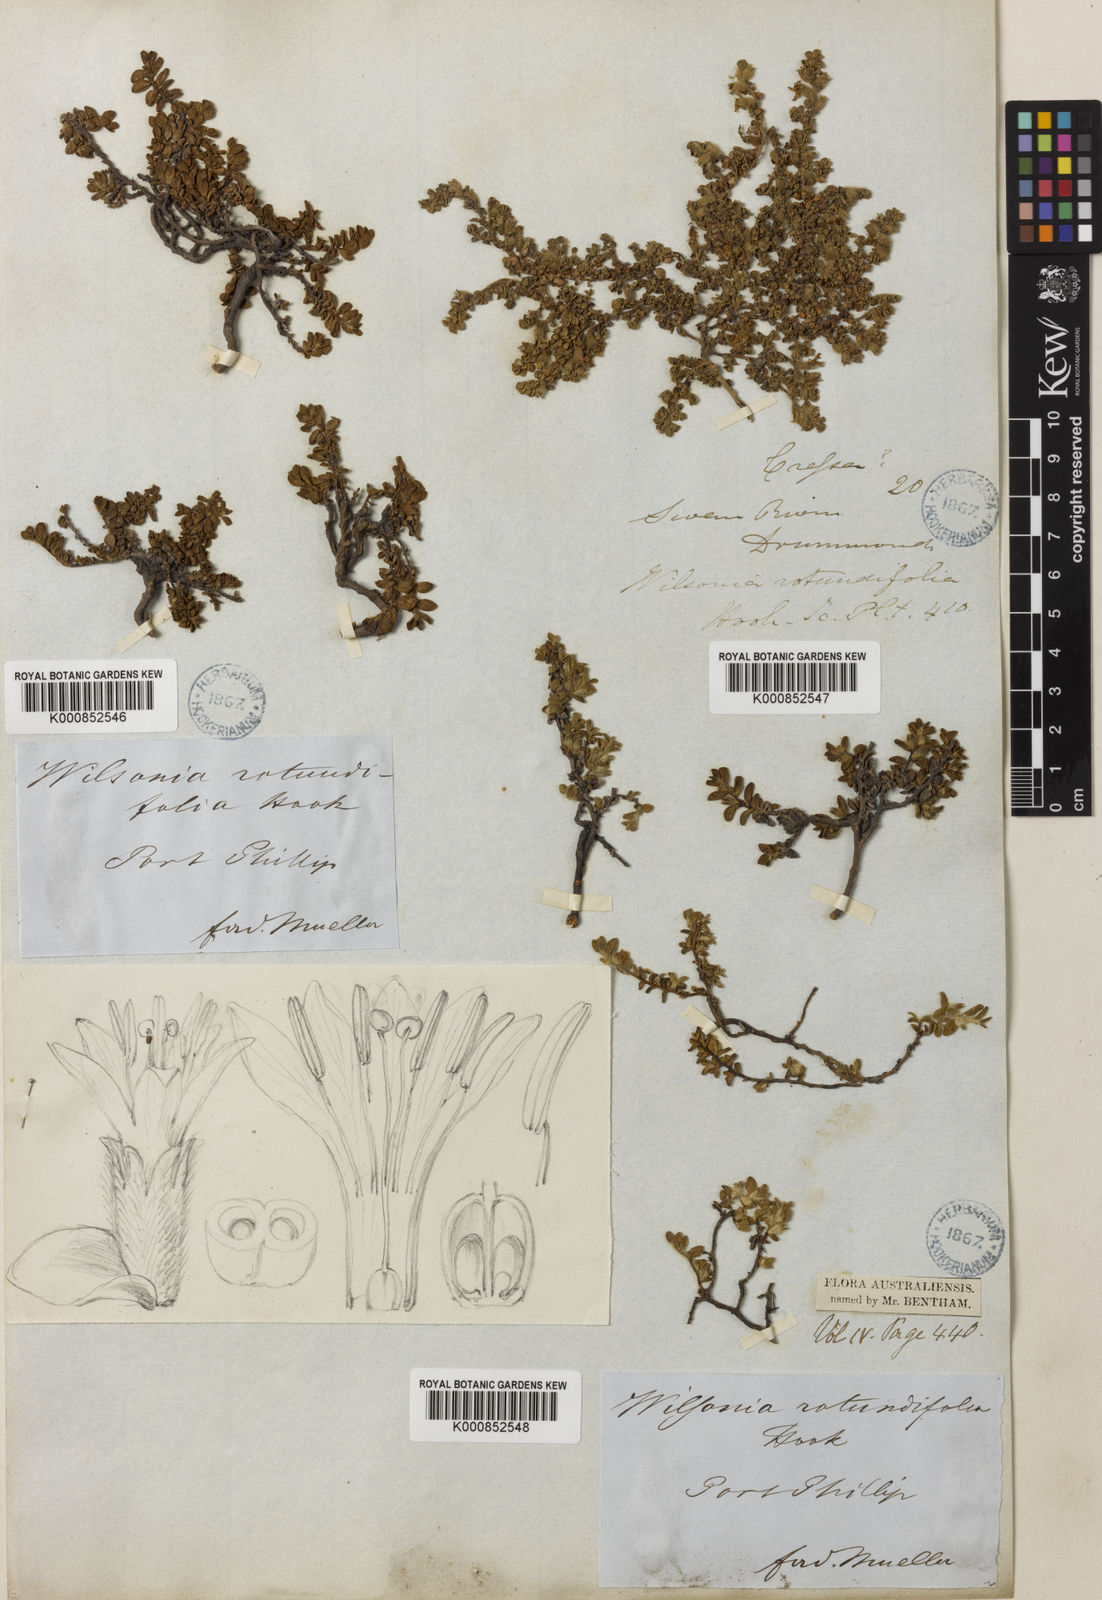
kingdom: Plantae
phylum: Tracheophyta
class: Magnoliopsida
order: Solanales
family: Convolvulaceae
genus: Wilsonia
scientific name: Wilsonia rotundifolia
